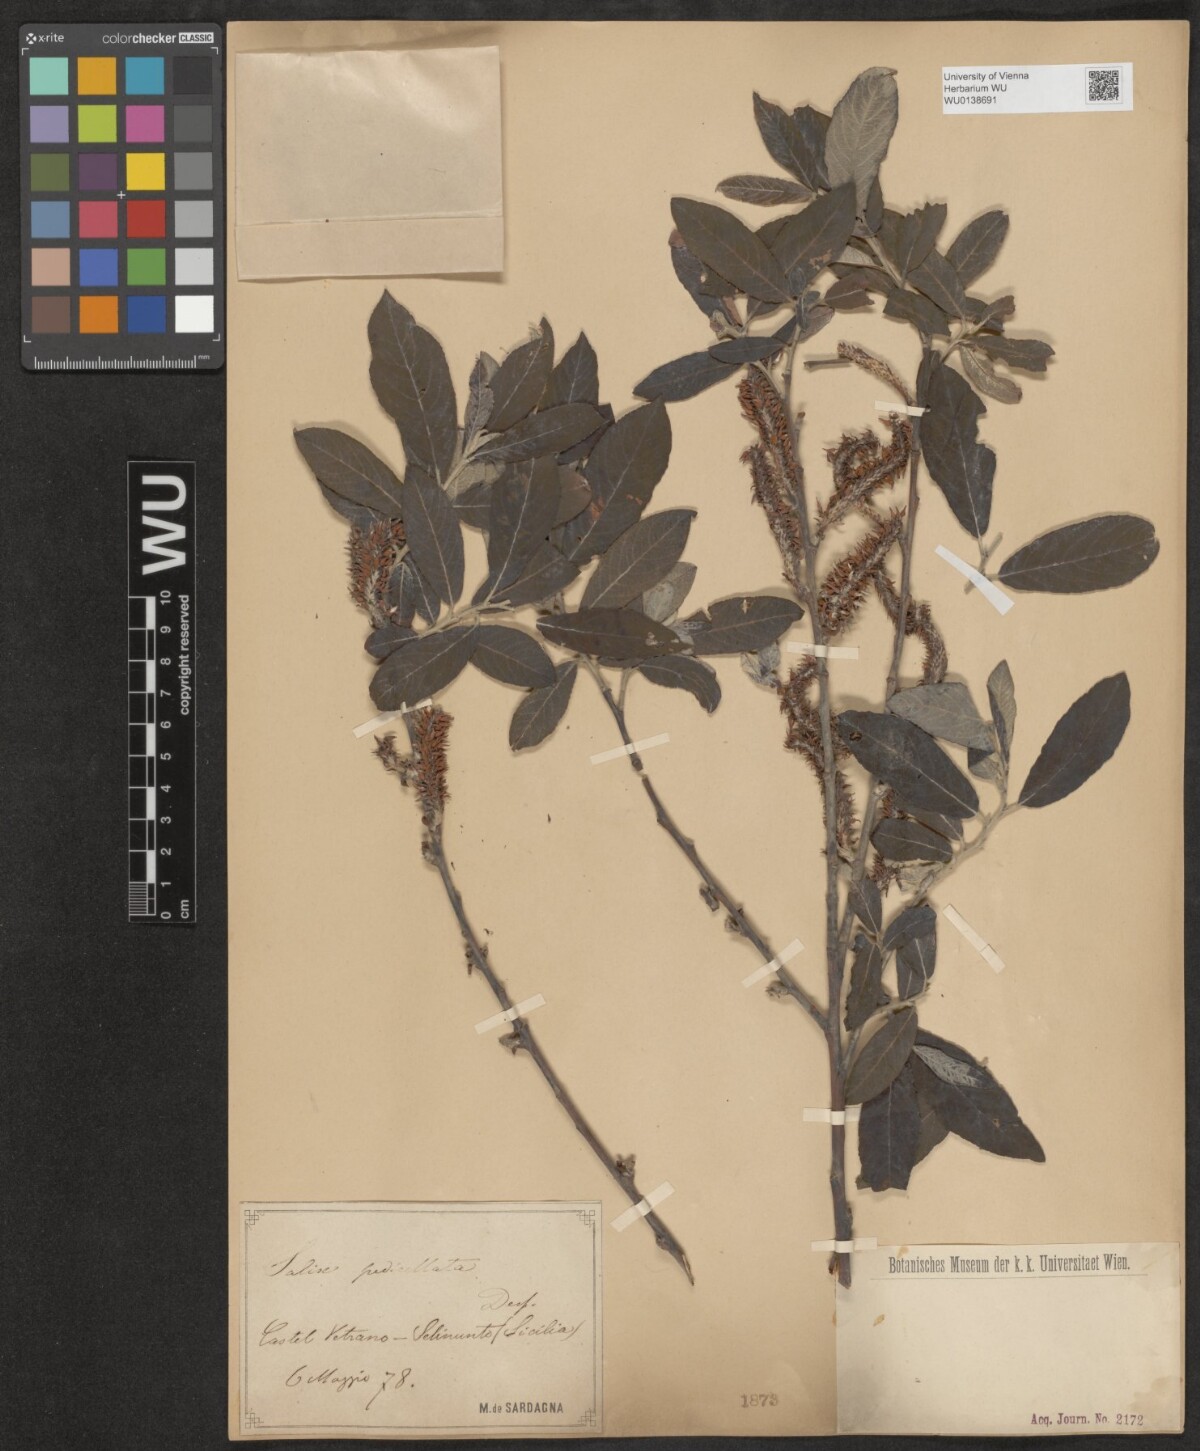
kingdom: Plantae
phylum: Tracheophyta
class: Magnoliopsida
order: Malpighiales
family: Salicaceae
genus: Salix
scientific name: Salix pedicellata
